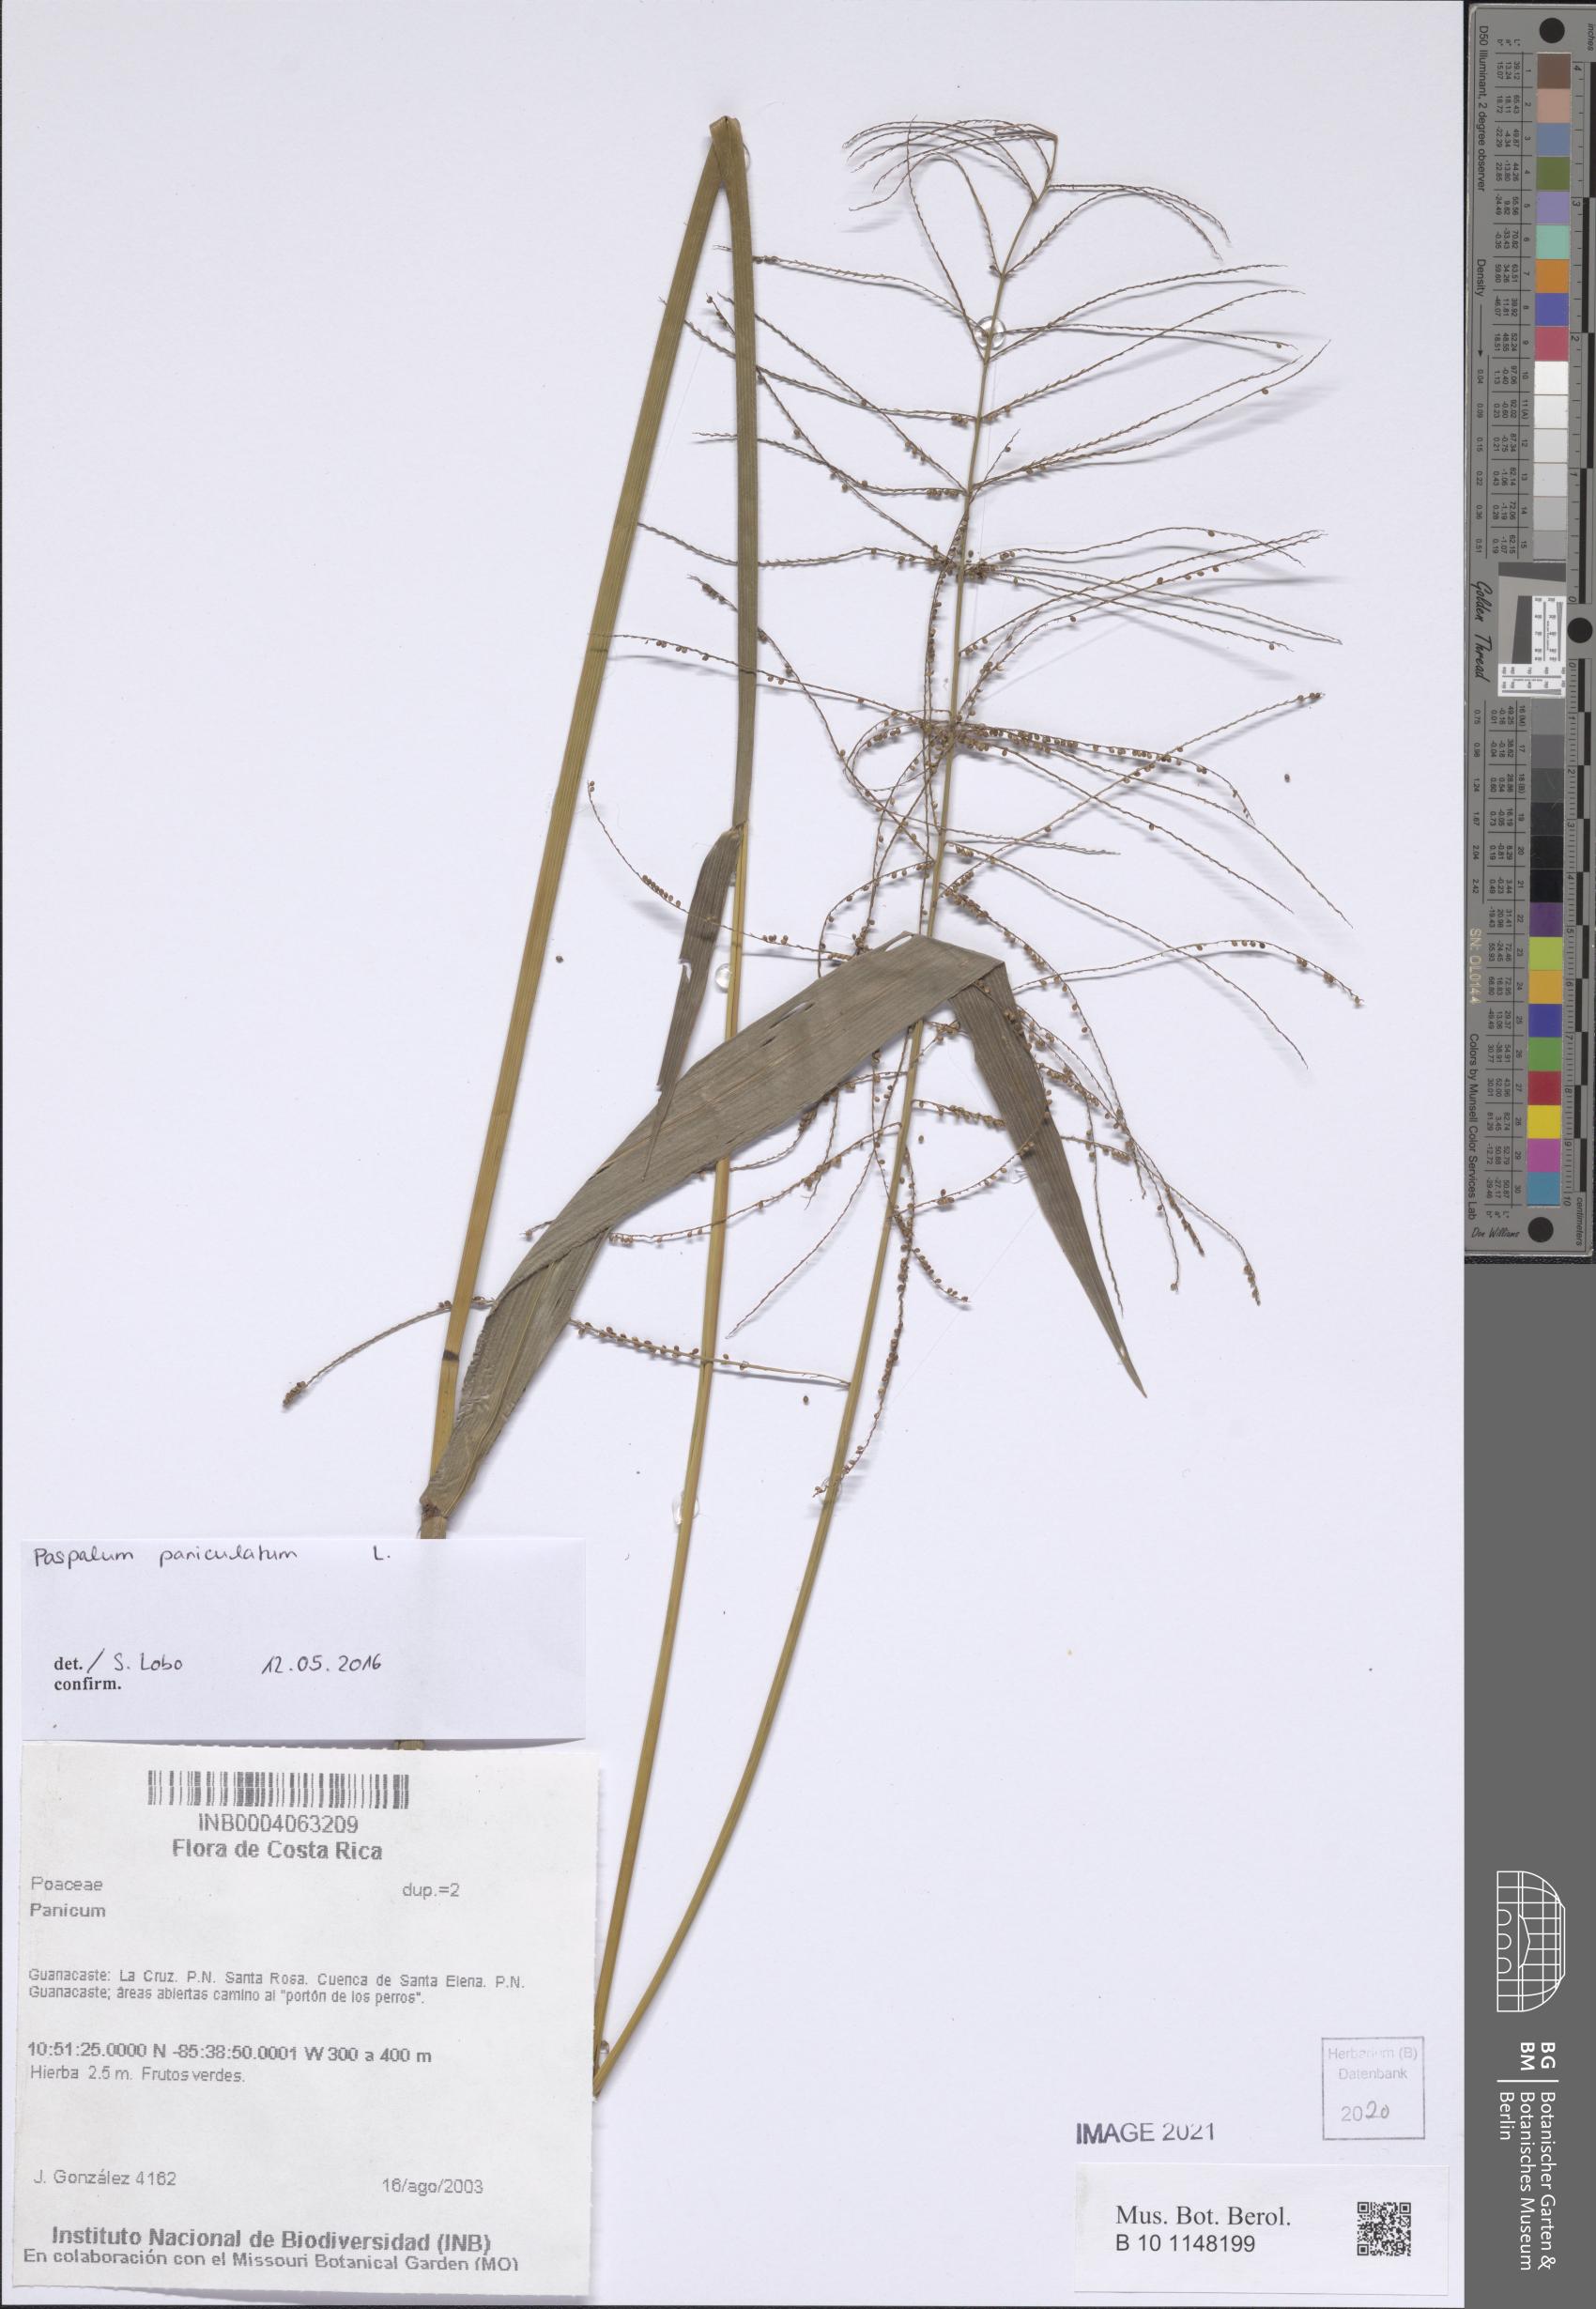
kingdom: Plantae
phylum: Tracheophyta
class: Liliopsida
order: Poales
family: Poaceae
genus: Panicum
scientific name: Panicum
